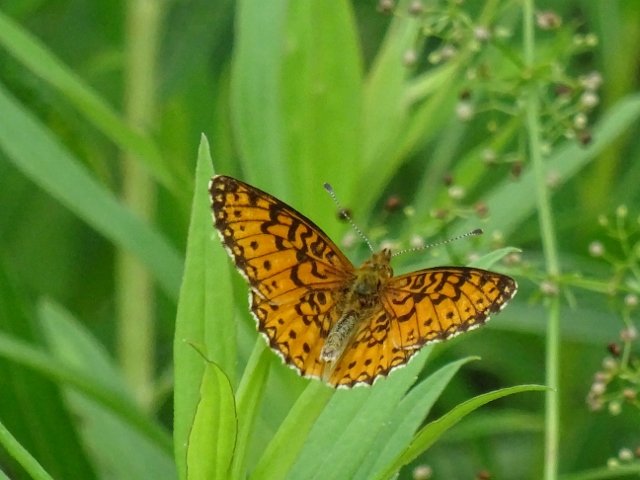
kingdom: Animalia
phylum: Arthropoda
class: Insecta
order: Lepidoptera
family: Nymphalidae
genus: Boloria
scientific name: Boloria selene
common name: Silver-bordered Fritillary
